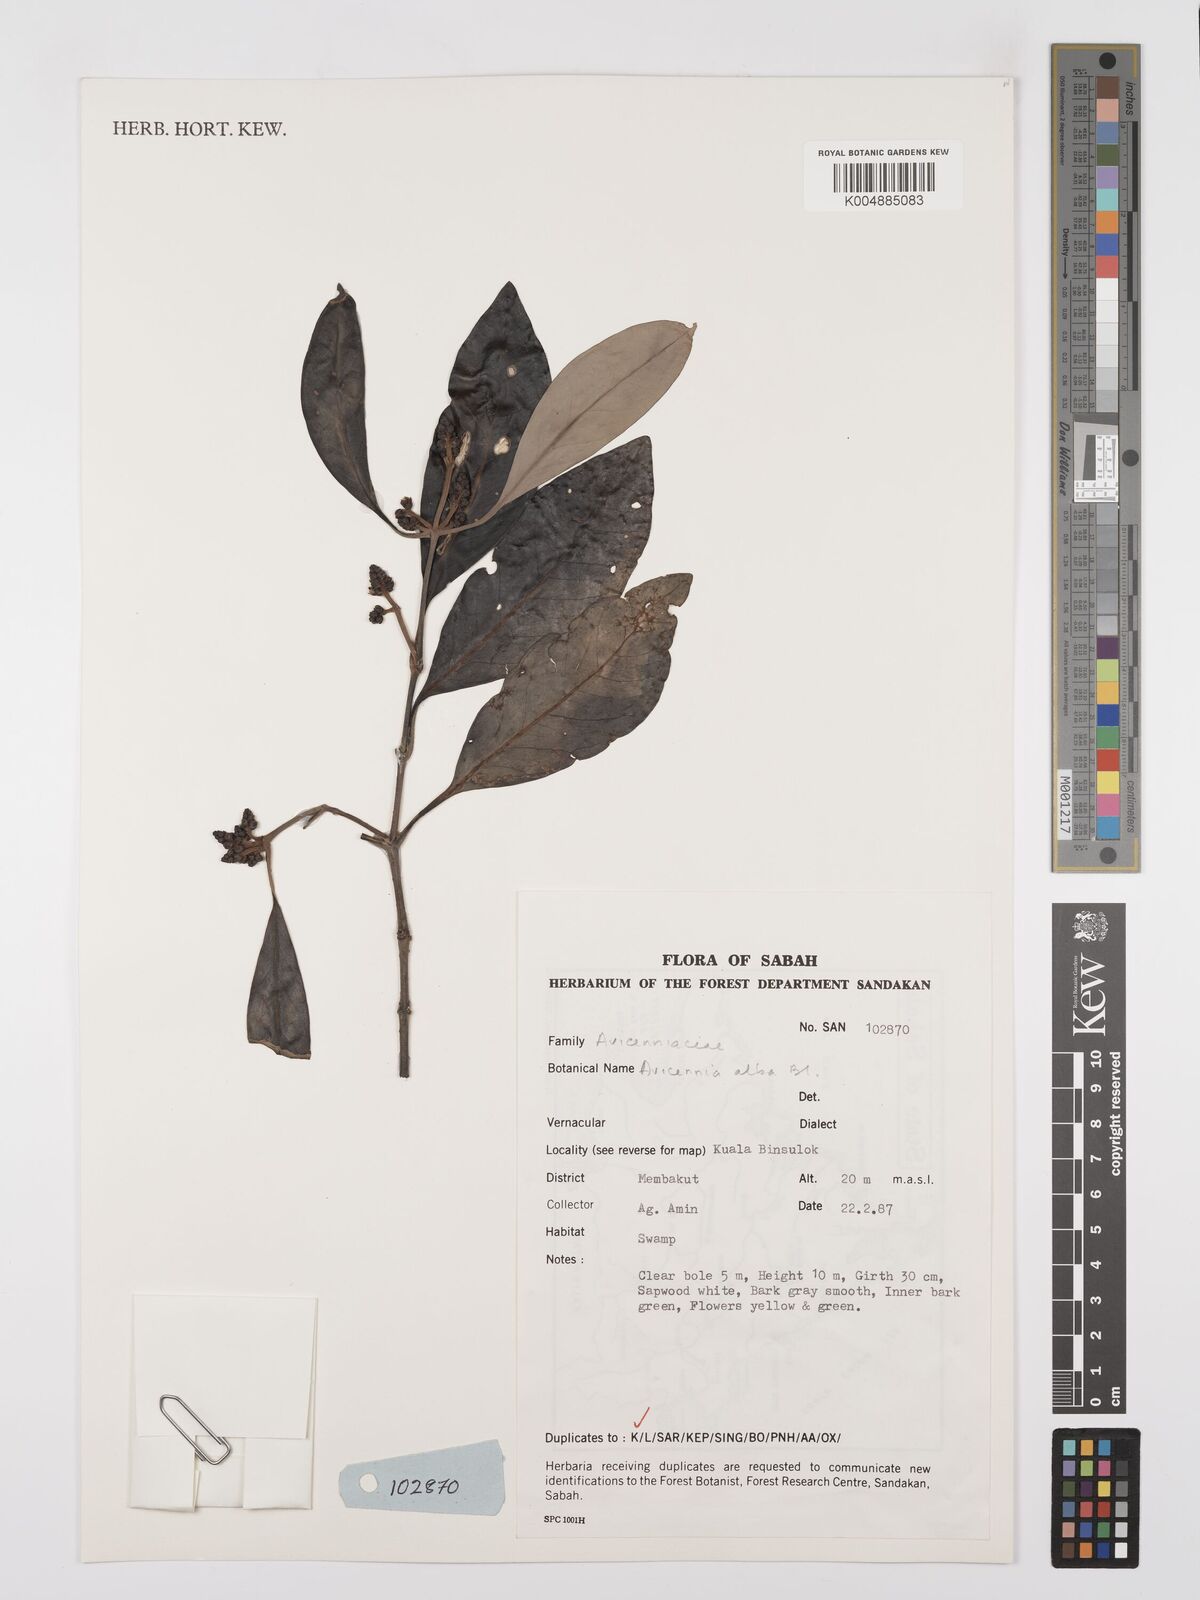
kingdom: Plantae
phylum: Tracheophyta
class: Magnoliopsida
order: Lamiales
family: Acanthaceae
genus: Avicennia
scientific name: Avicennia alba
